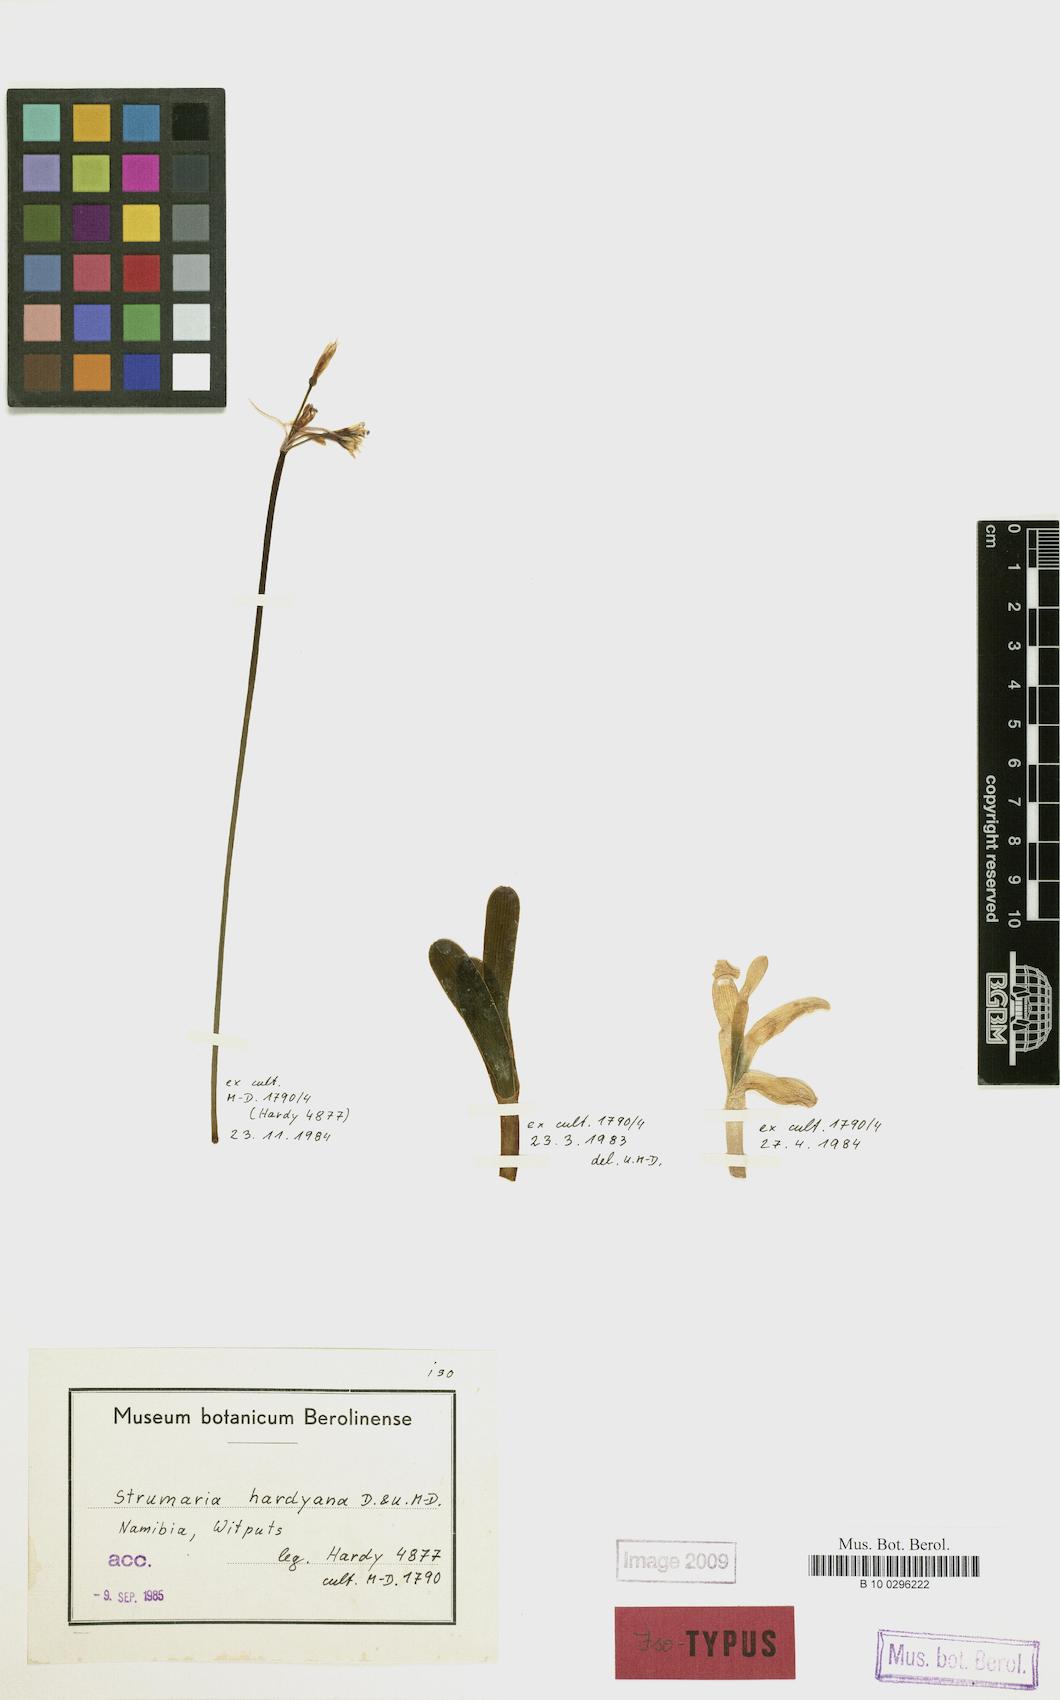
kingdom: Plantae
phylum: Tracheophyta
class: Liliopsida
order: Asparagales
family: Amaryllidaceae
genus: Strumaria
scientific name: Strumaria hardyana
